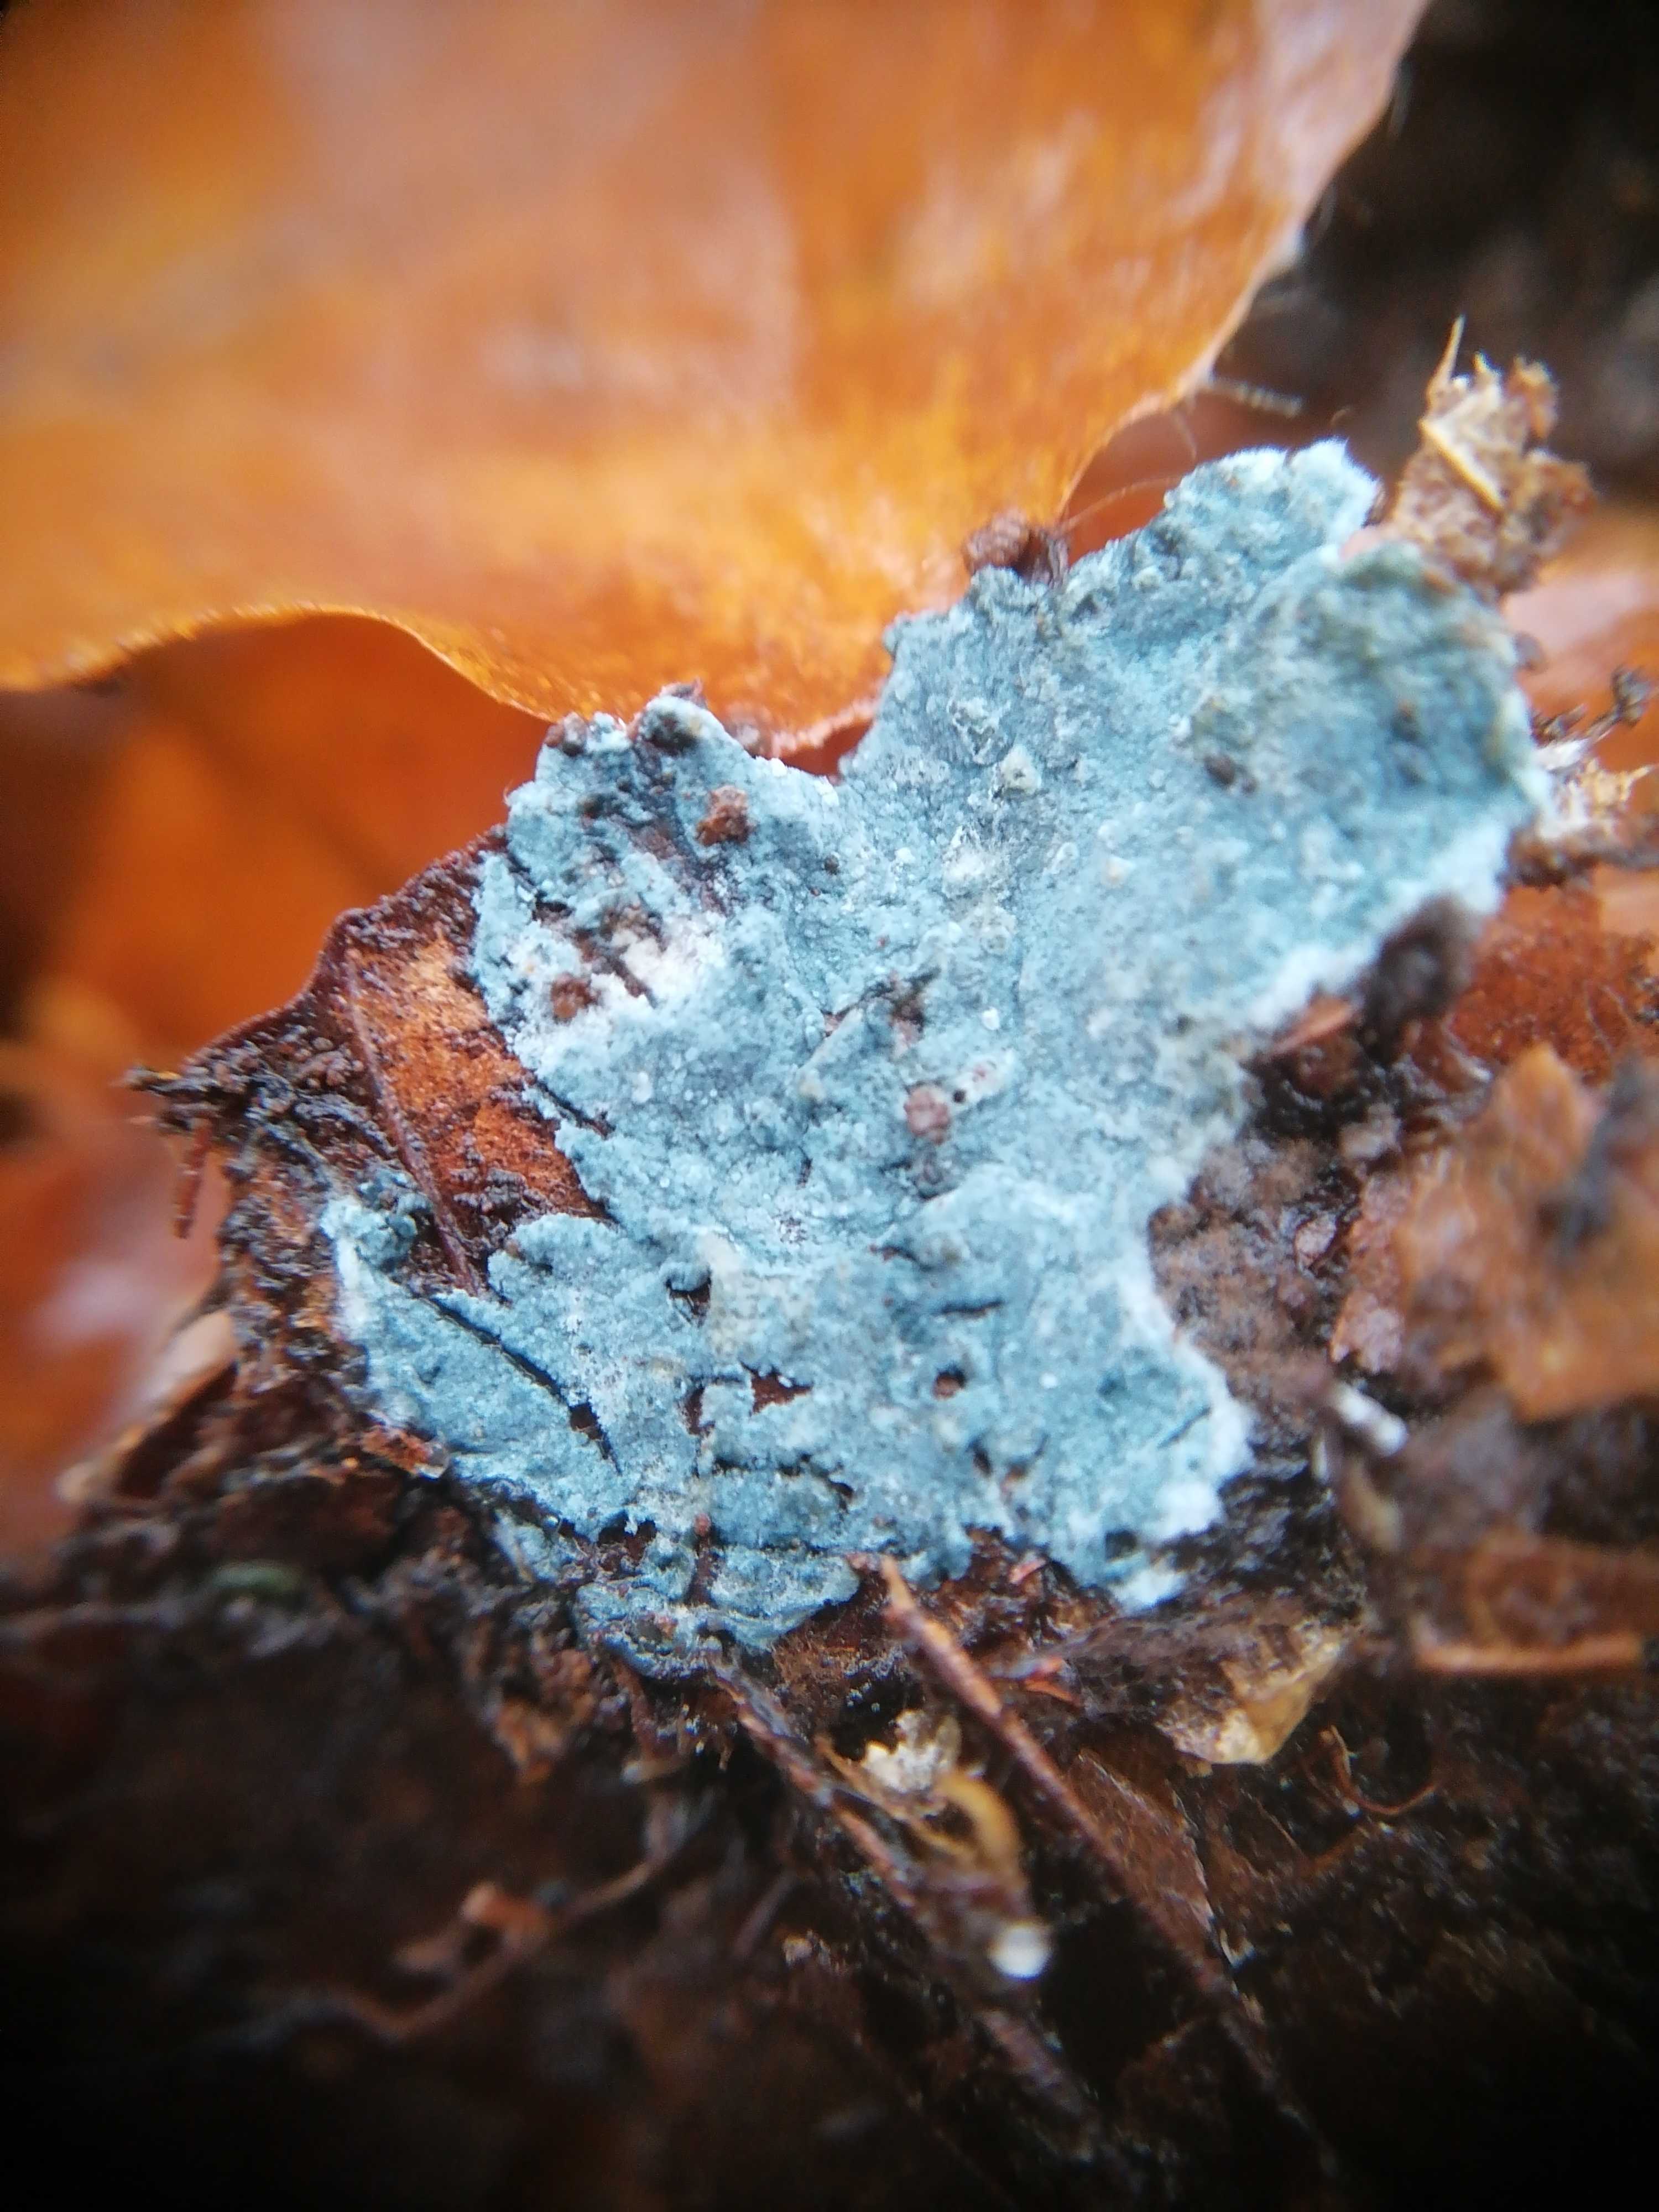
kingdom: Fungi
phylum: Basidiomycota
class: Agaricomycetes
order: Atheliales
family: Atheliaceae
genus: Byssocorticium
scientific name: Byssocorticium atrovirens
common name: blå førnehinde
